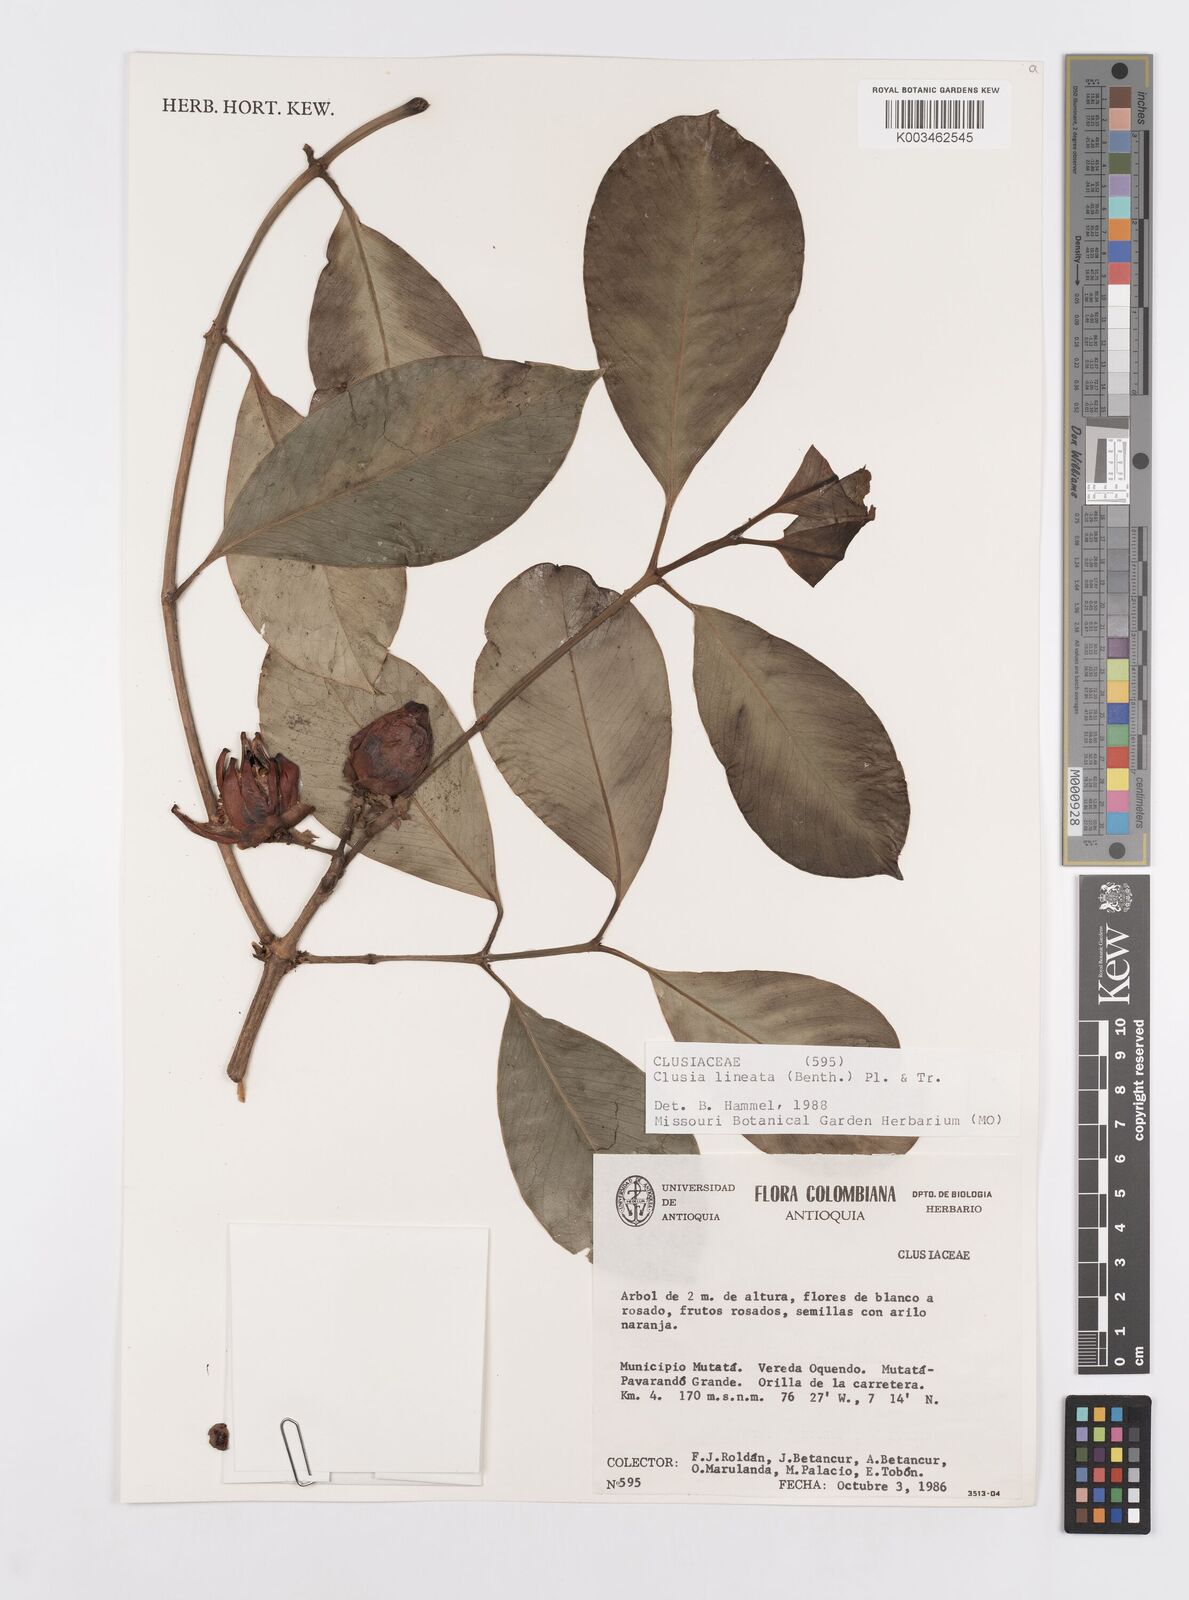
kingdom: Plantae
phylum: Tracheophyta
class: Magnoliopsida
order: Malpighiales
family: Clusiaceae
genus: Clusia
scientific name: Clusia lineata
